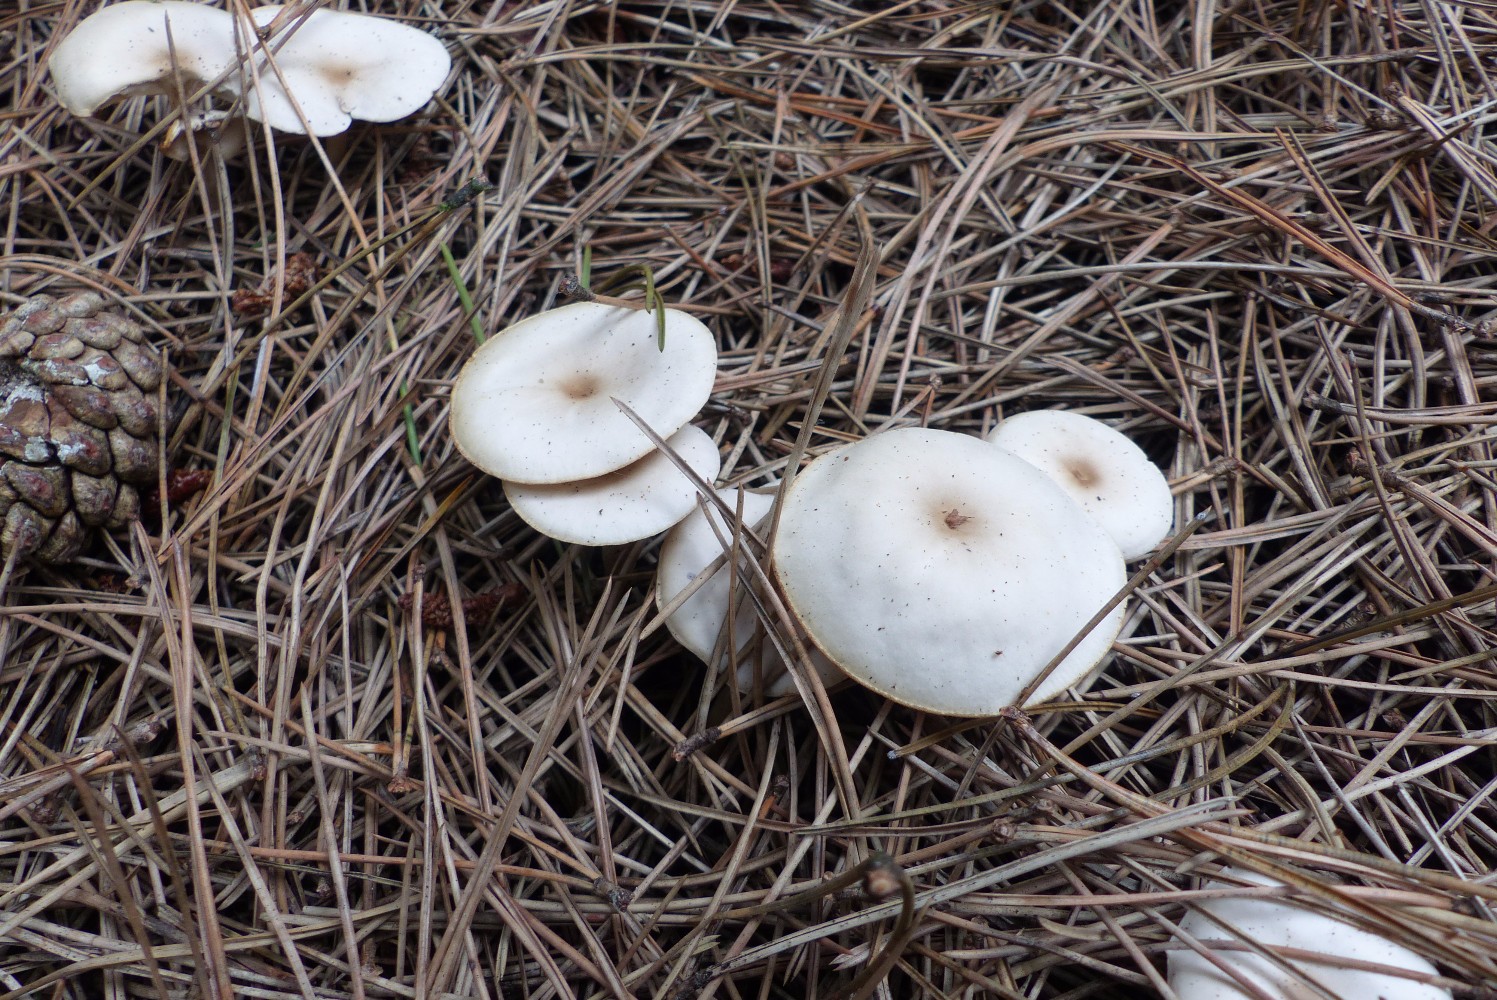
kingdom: Fungi
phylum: Basidiomycota
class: Agaricomycetes
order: Agaricales
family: Tricholomataceae
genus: Clitocybe
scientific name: Clitocybe
